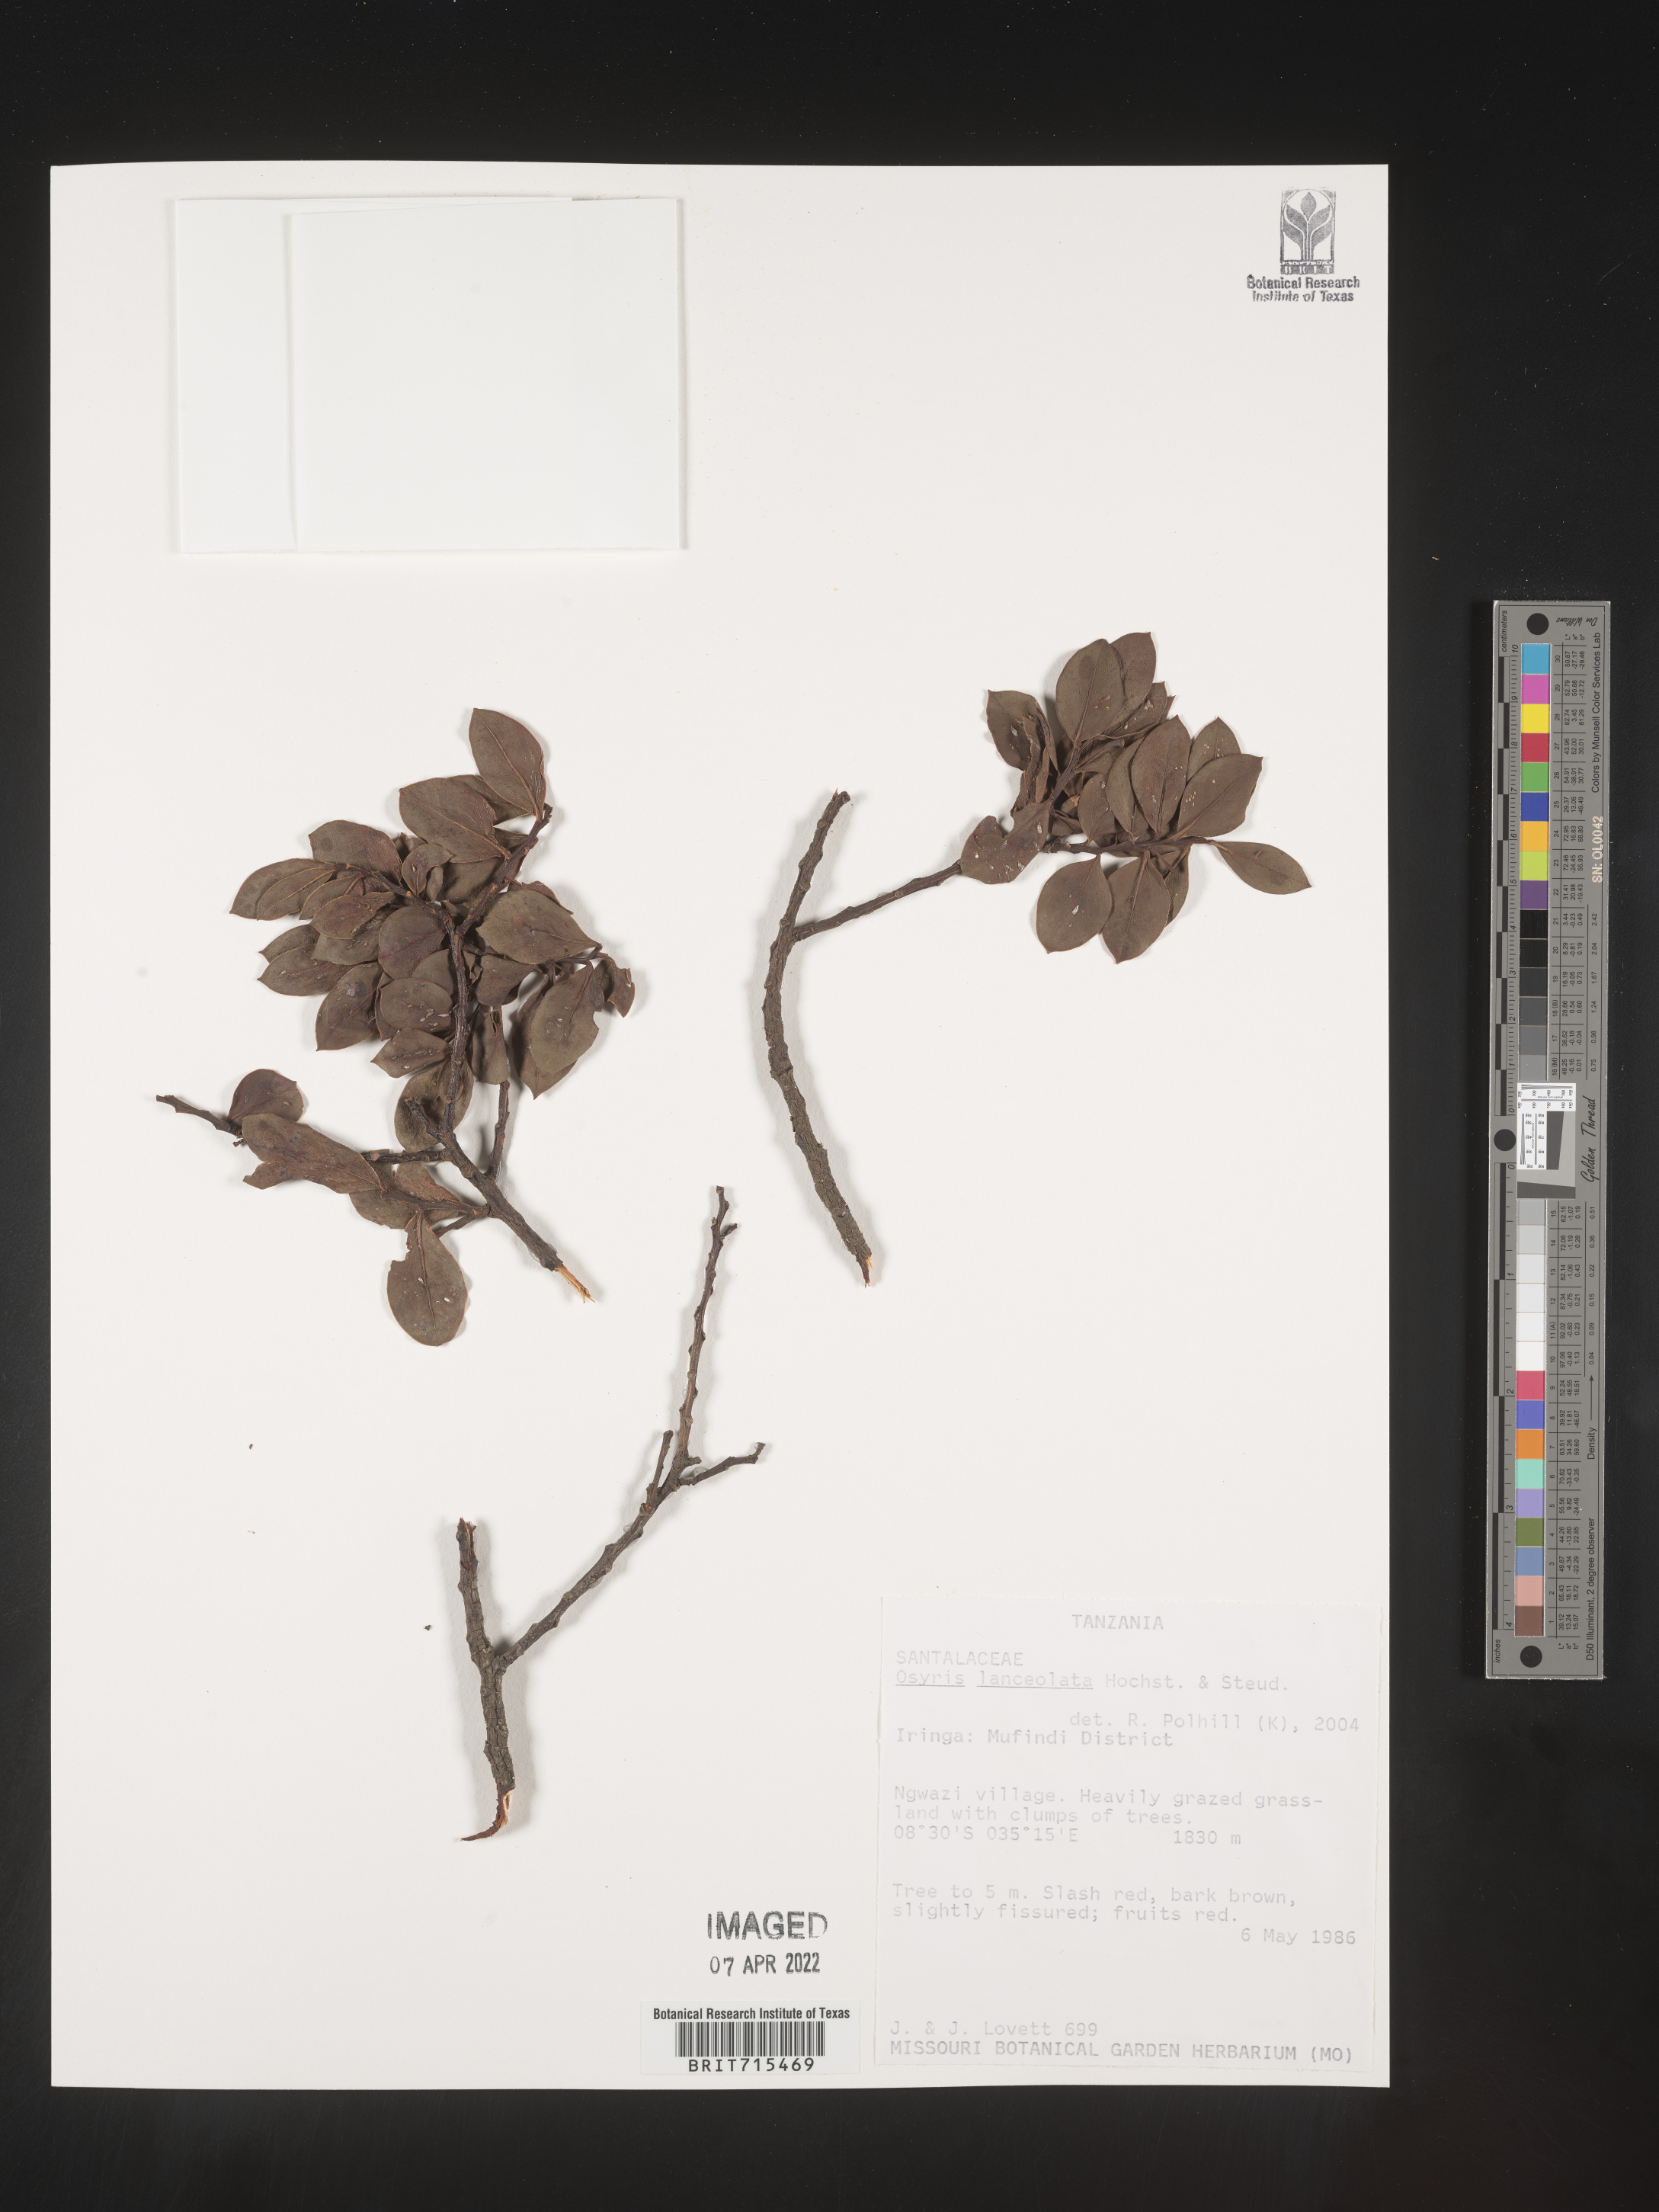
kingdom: Plantae
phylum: Tracheophyta
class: Magnoliopsida
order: Santalales
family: Santalaceae
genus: Osyris
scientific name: Osyris
